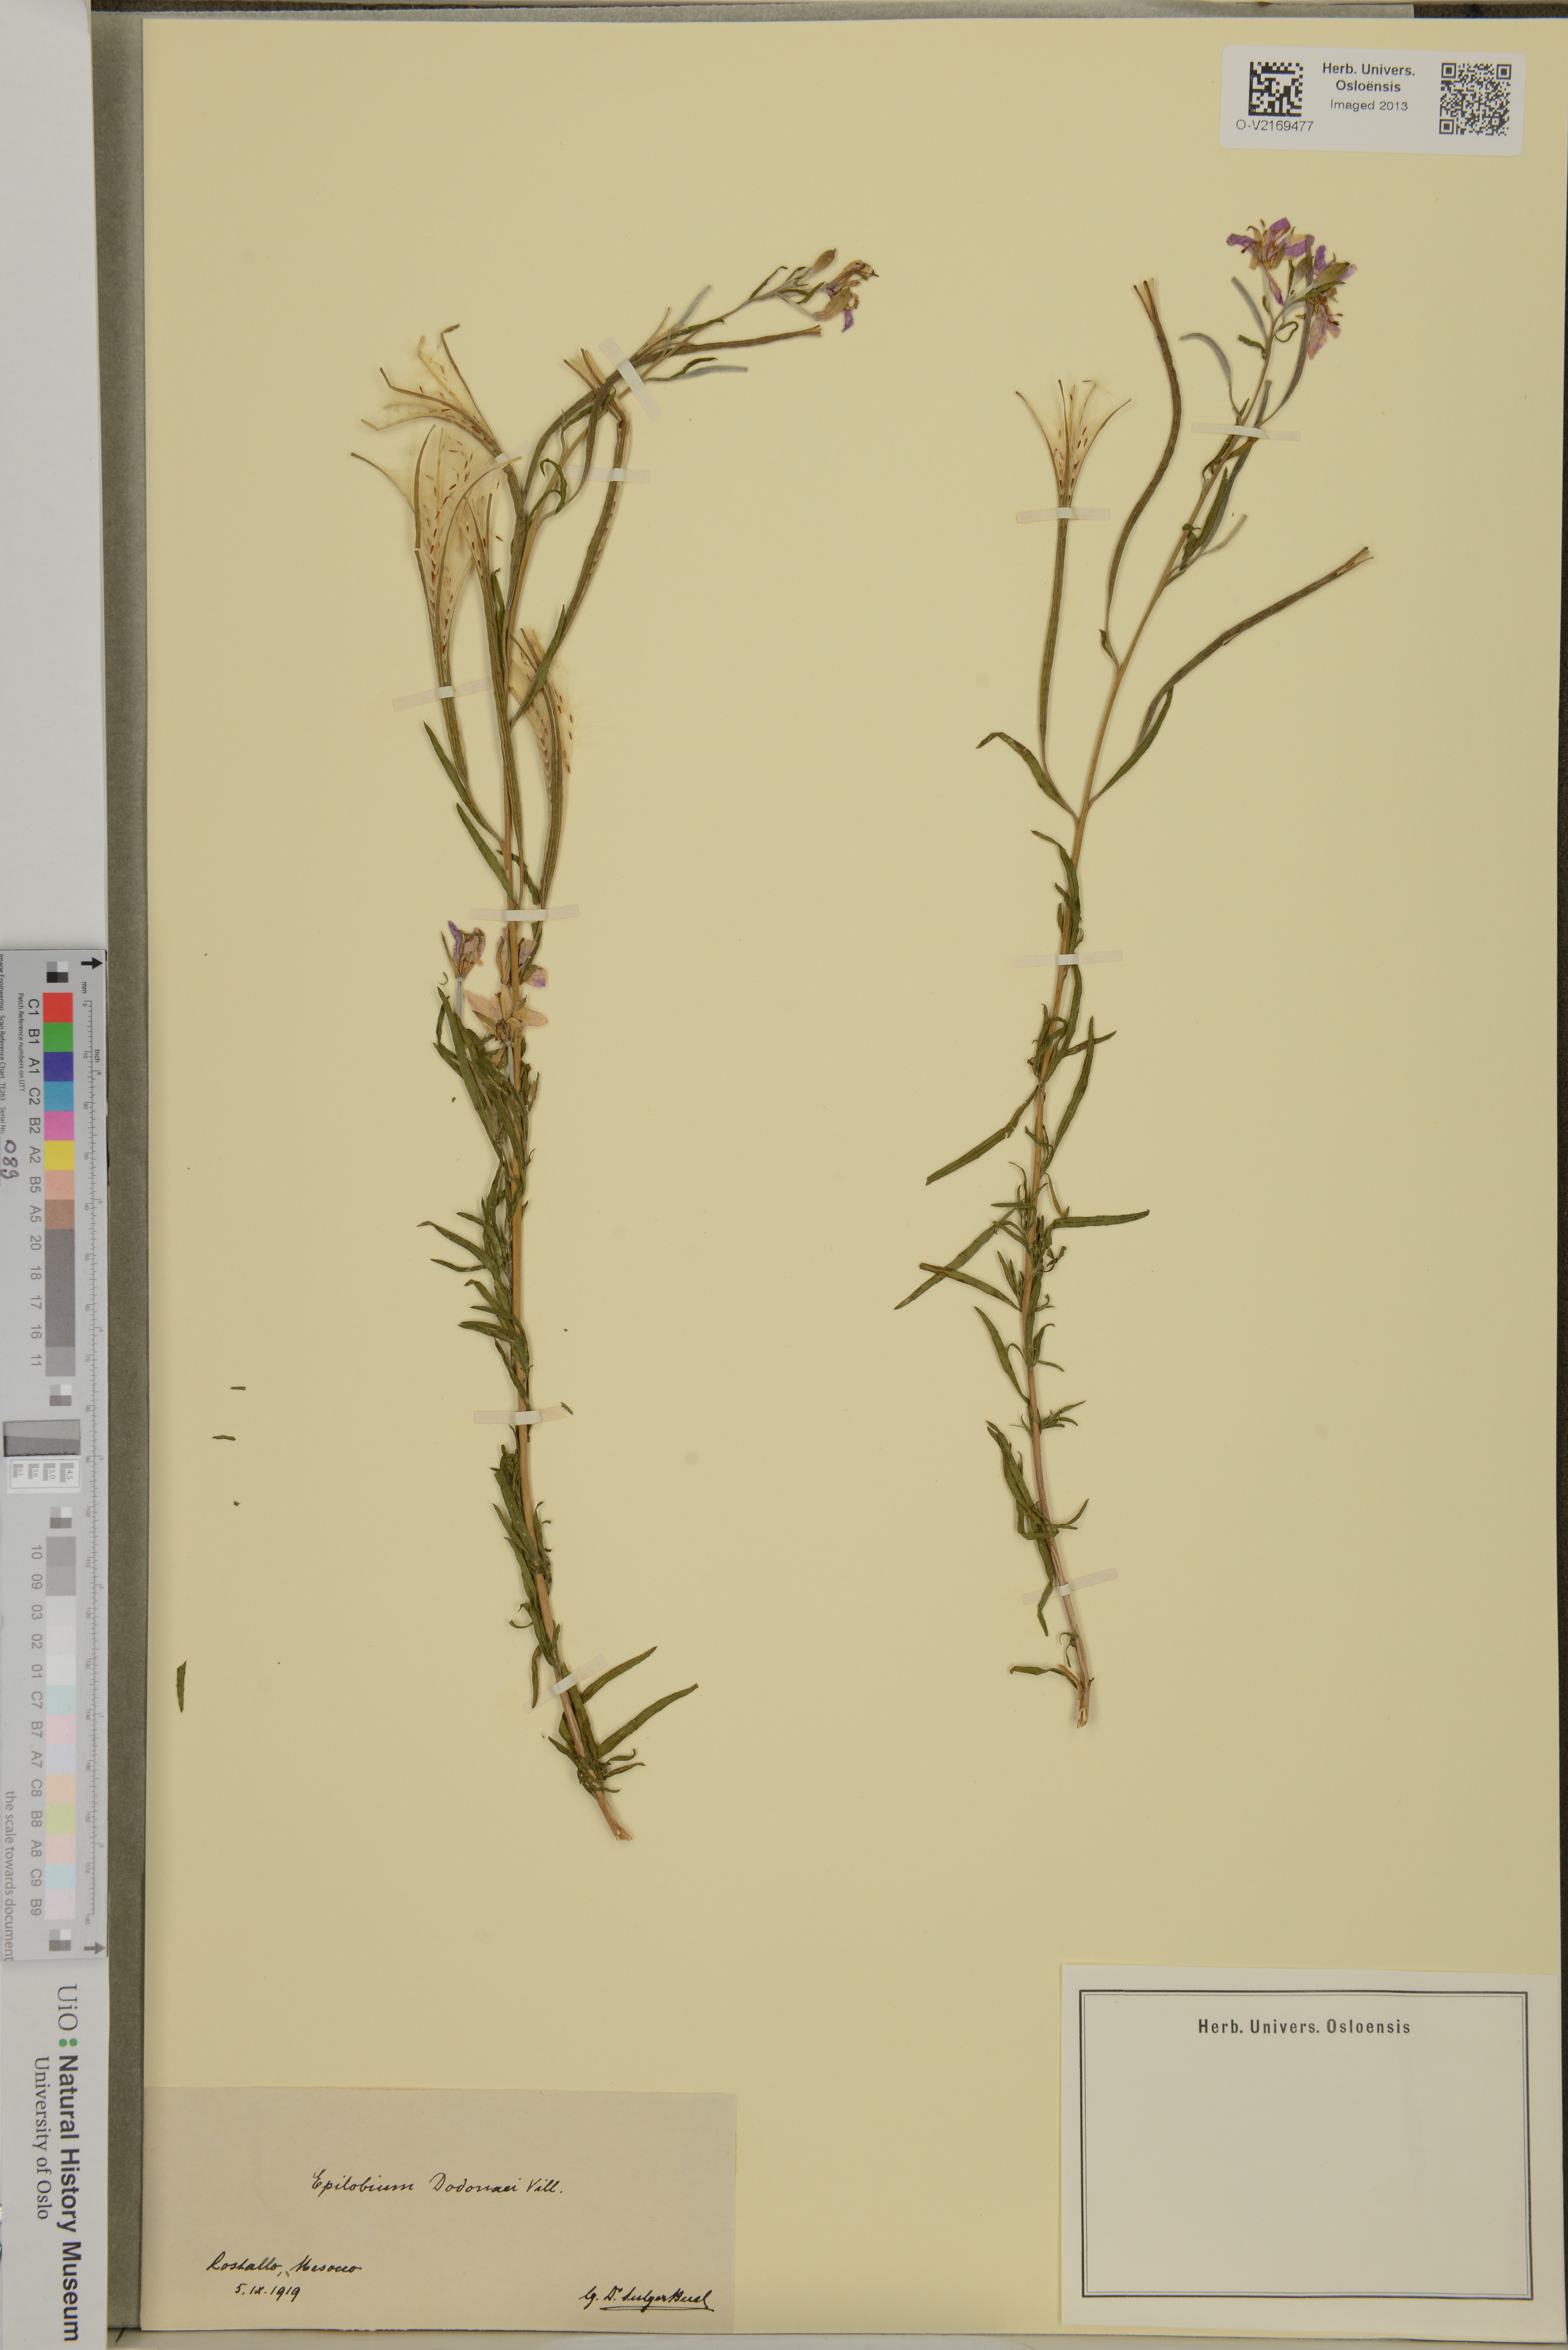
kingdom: Plantae
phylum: Tracheophyta
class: Magnoliopsida
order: Myrtales
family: Onagraceae
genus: Chamaenerion
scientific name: Chamaenerion dodonaei
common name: Rosemary-leaved willowherb
